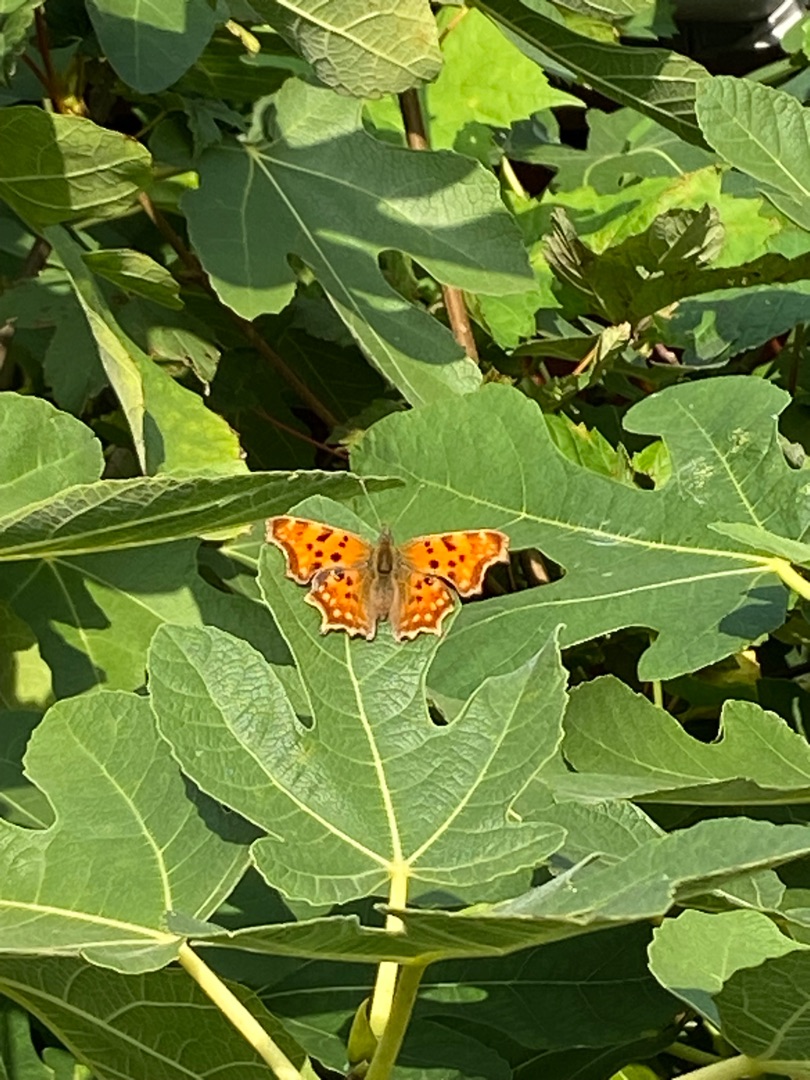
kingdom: Animalia
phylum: Arthropoda
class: Insecta
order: Lepidoptera
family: Nymphalidae
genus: Polygonia
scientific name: Polygonia c-album
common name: Det hvide C
